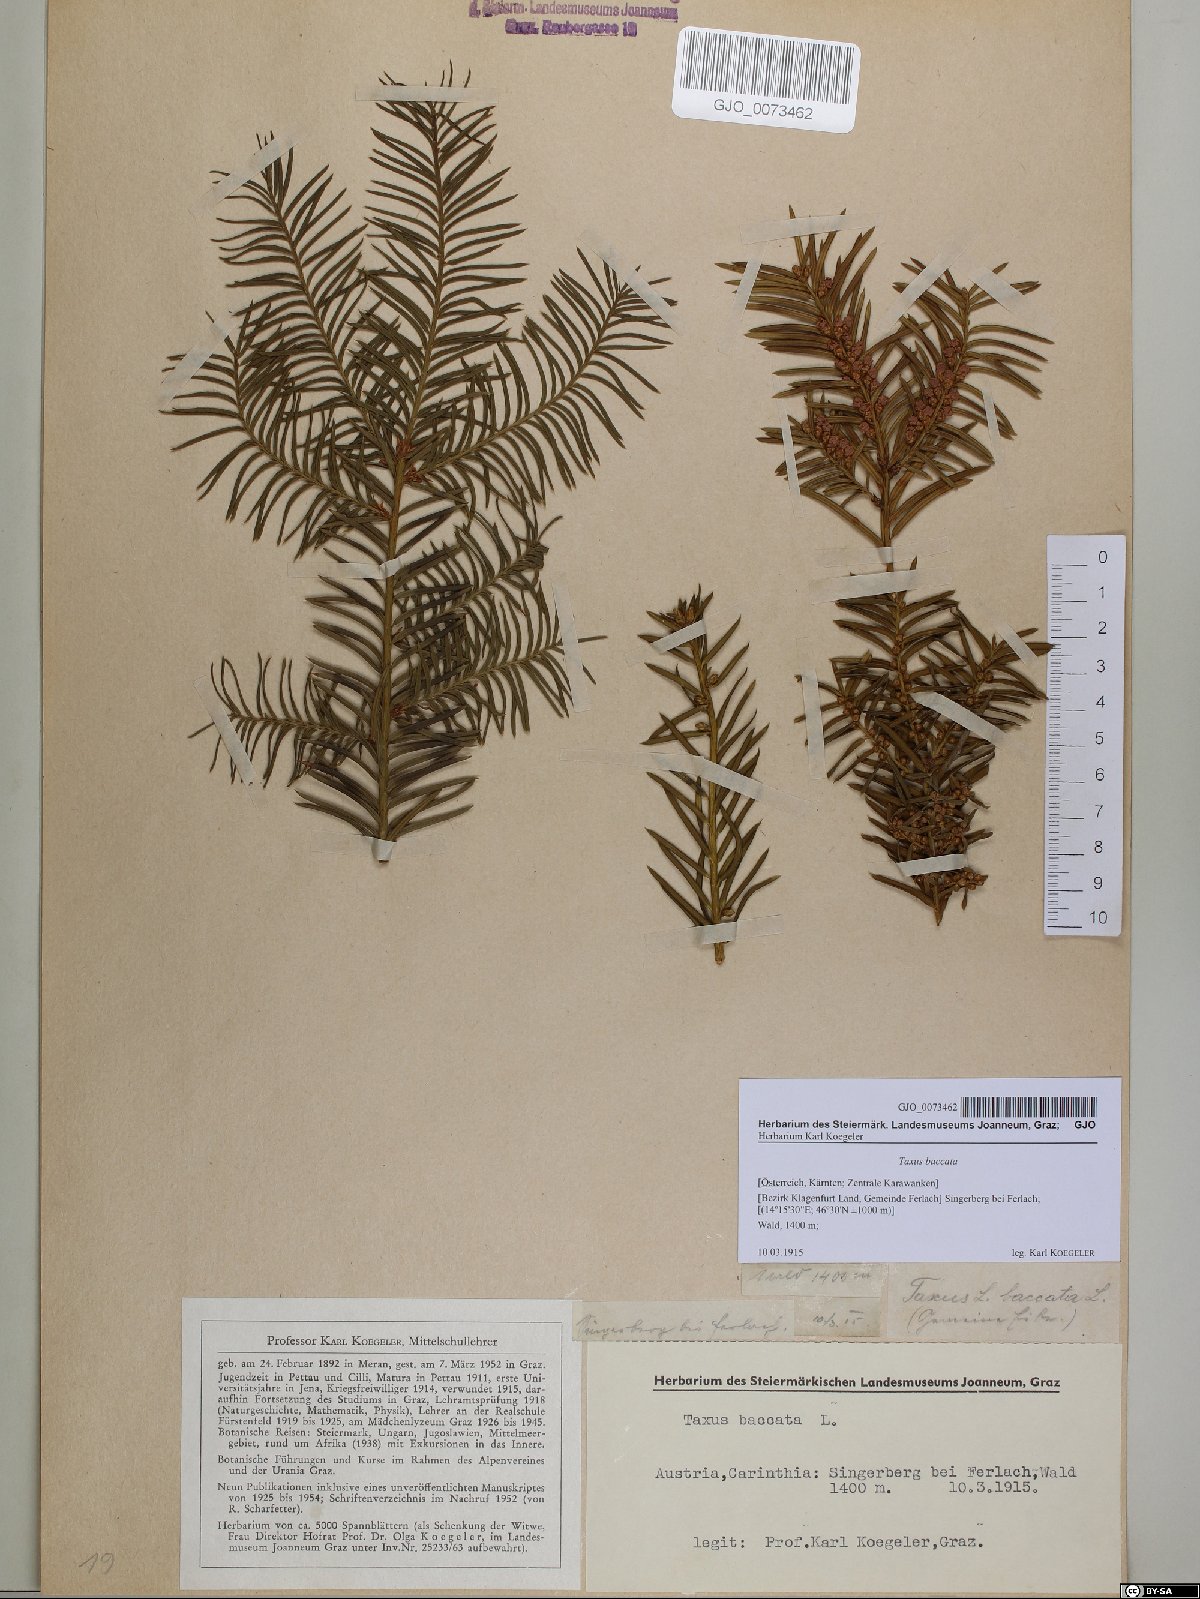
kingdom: Plantae
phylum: Tracheophyta
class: Pinopsida
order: Pinales
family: Taxaceae
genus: Taxus
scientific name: Taxus baccata
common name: Yew
